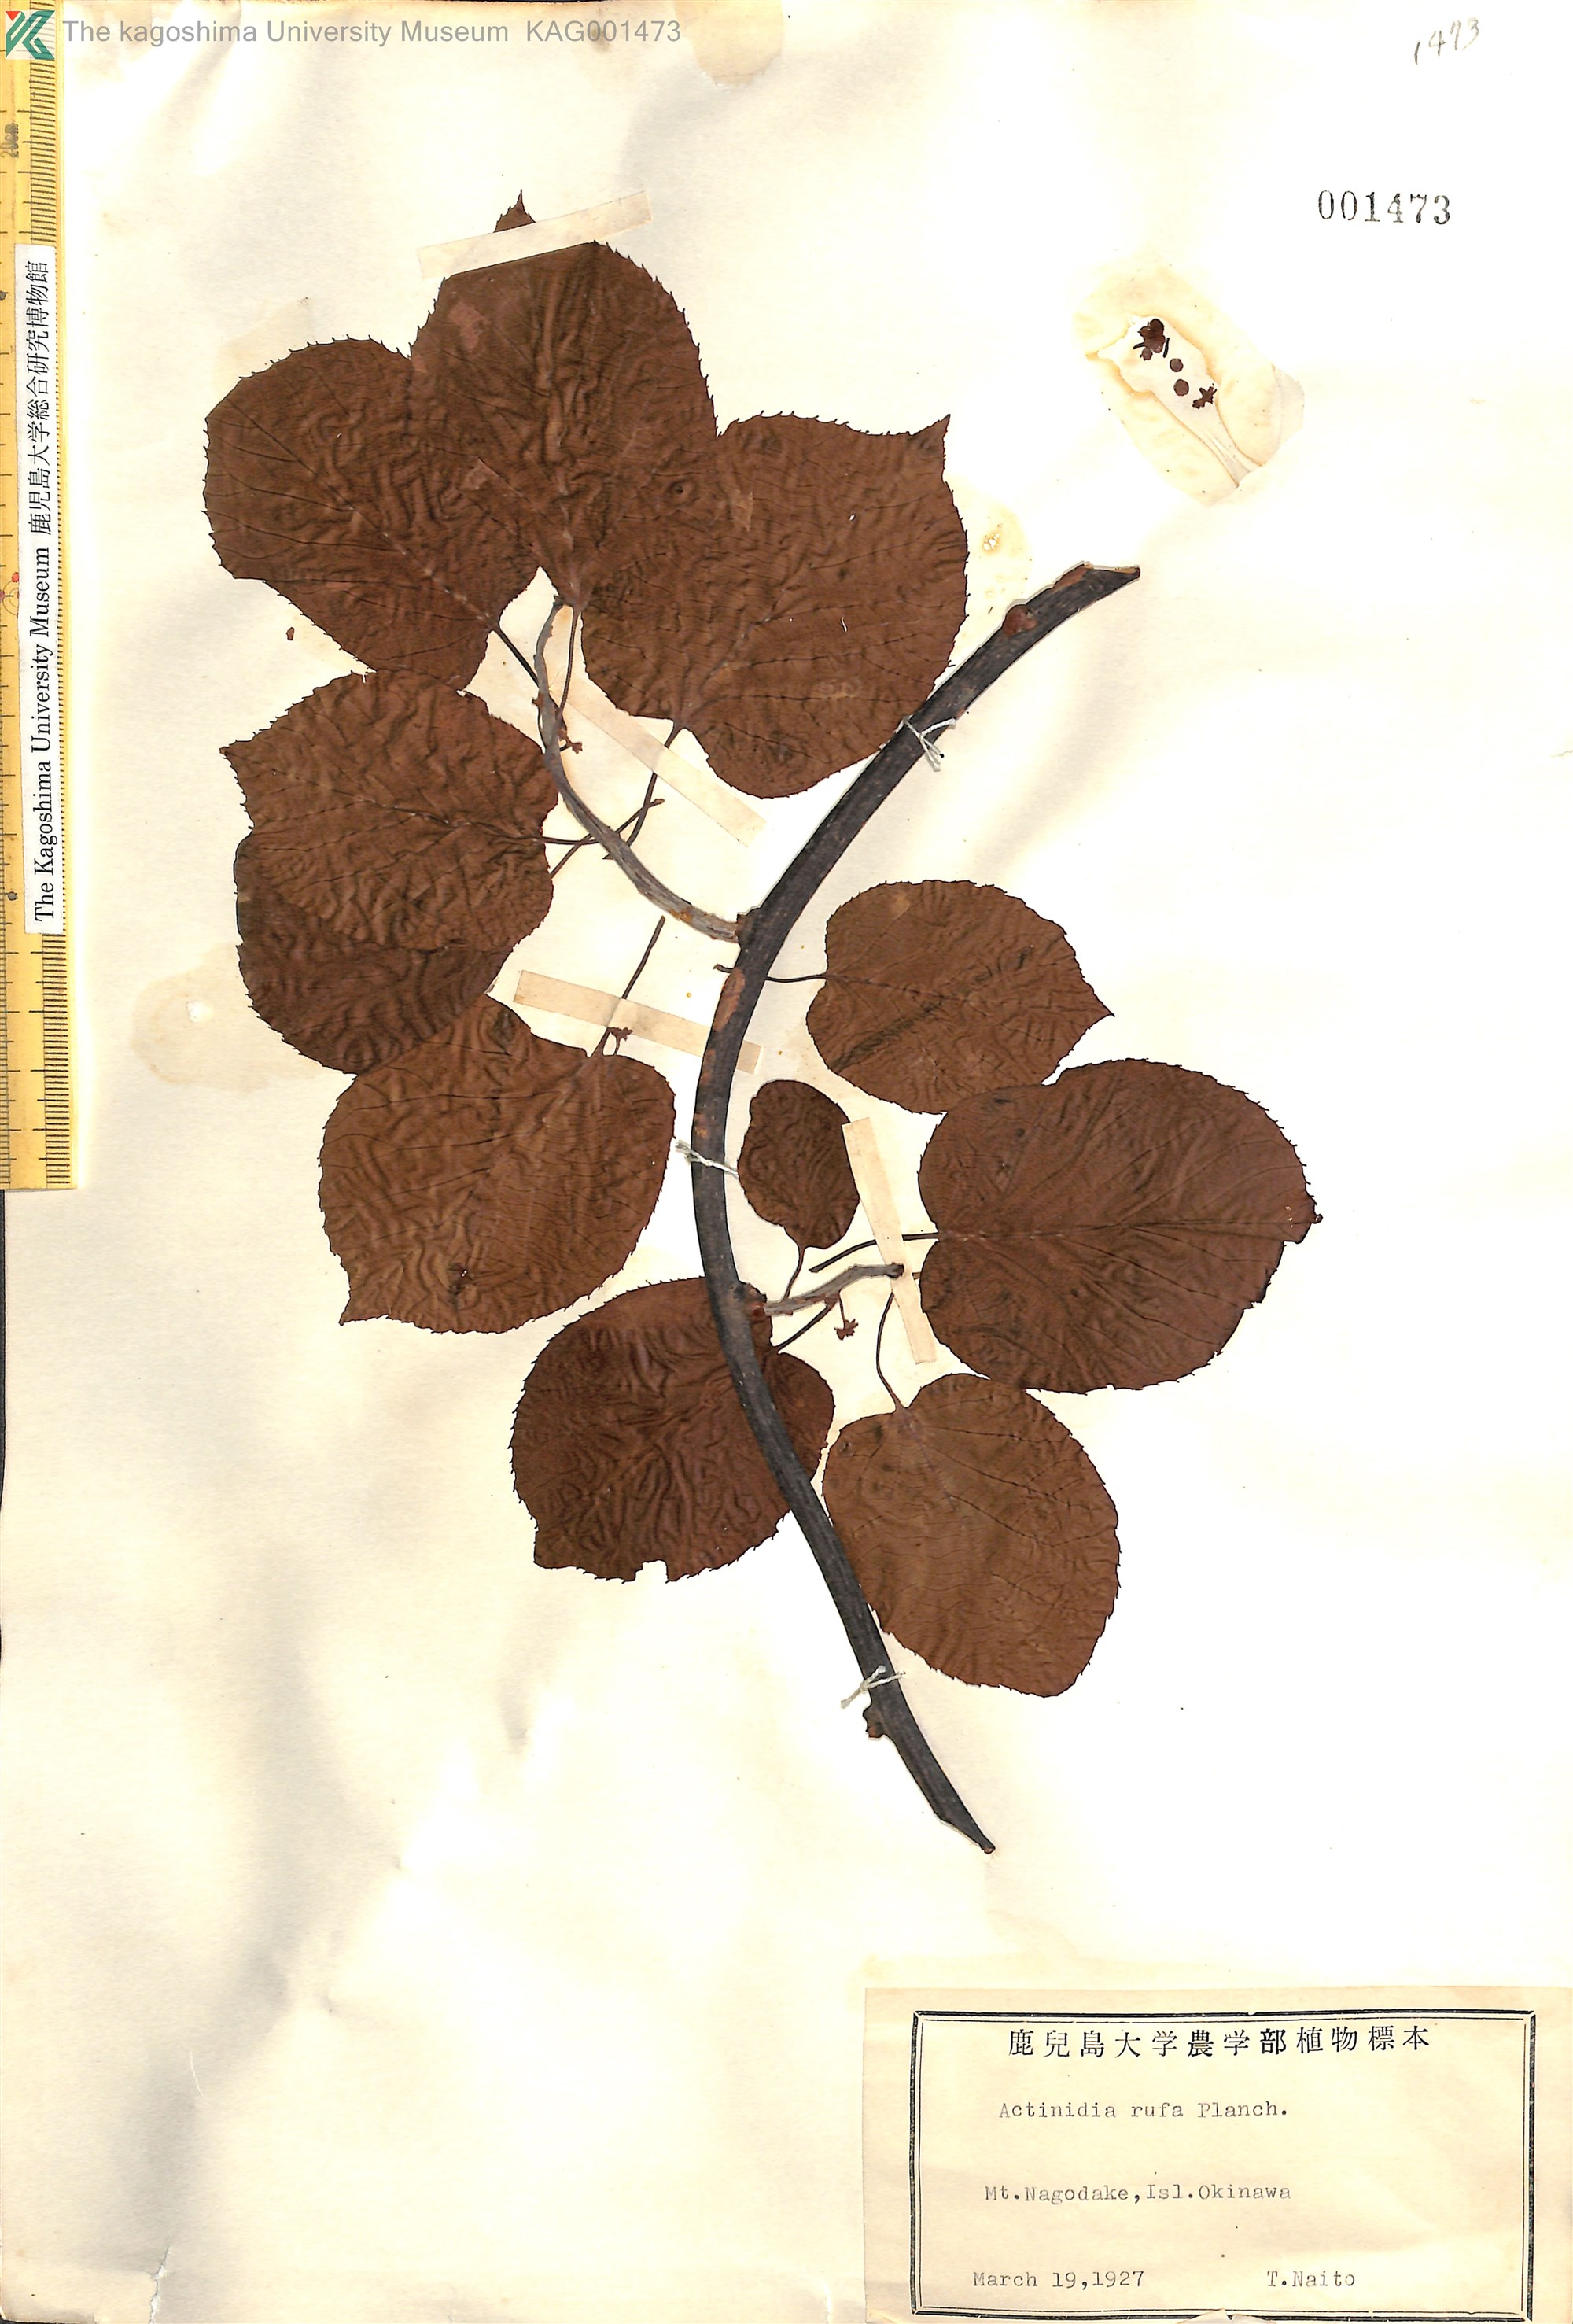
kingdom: Plantae
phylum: Tracheophyta
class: Magnoliopsida
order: Ericales
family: Actinidiaceae
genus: Actinidia
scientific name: Actinidia rufa
